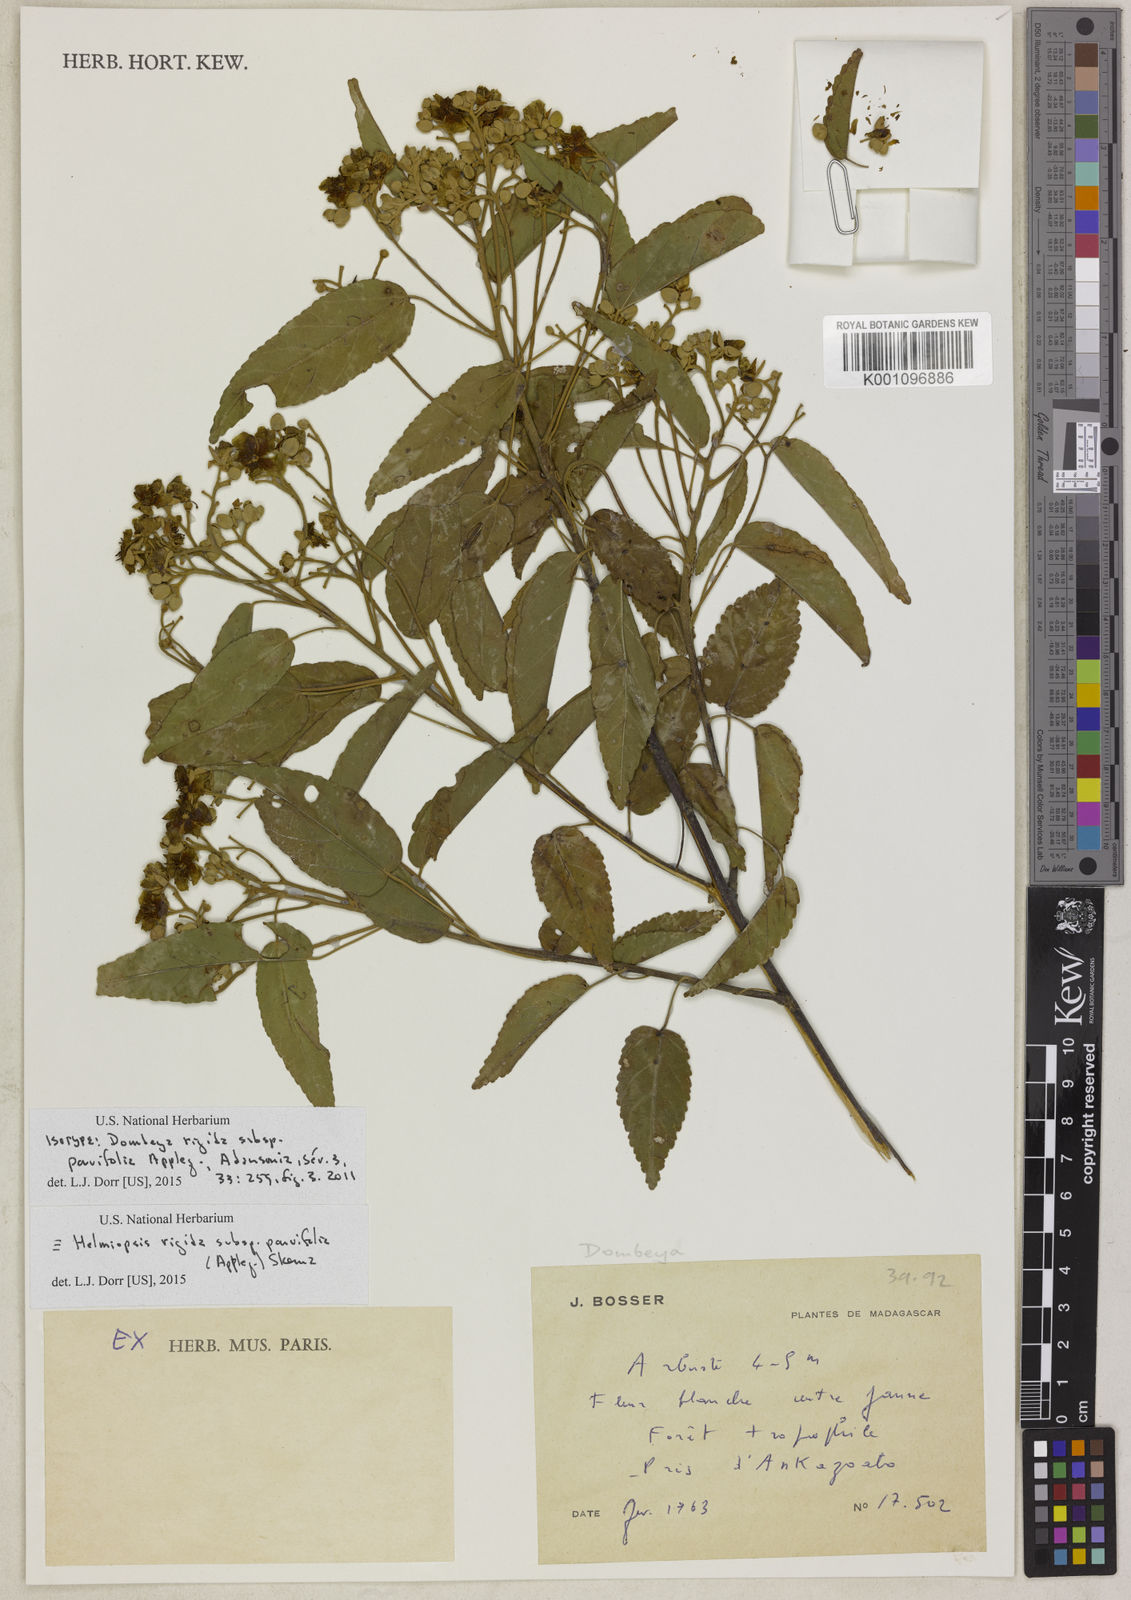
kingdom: Plantae
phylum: Tracheophyta
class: Magnoliopsida
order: Malvales
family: Malvaceae
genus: Eriolaena
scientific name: Eriolaena parvifolia
